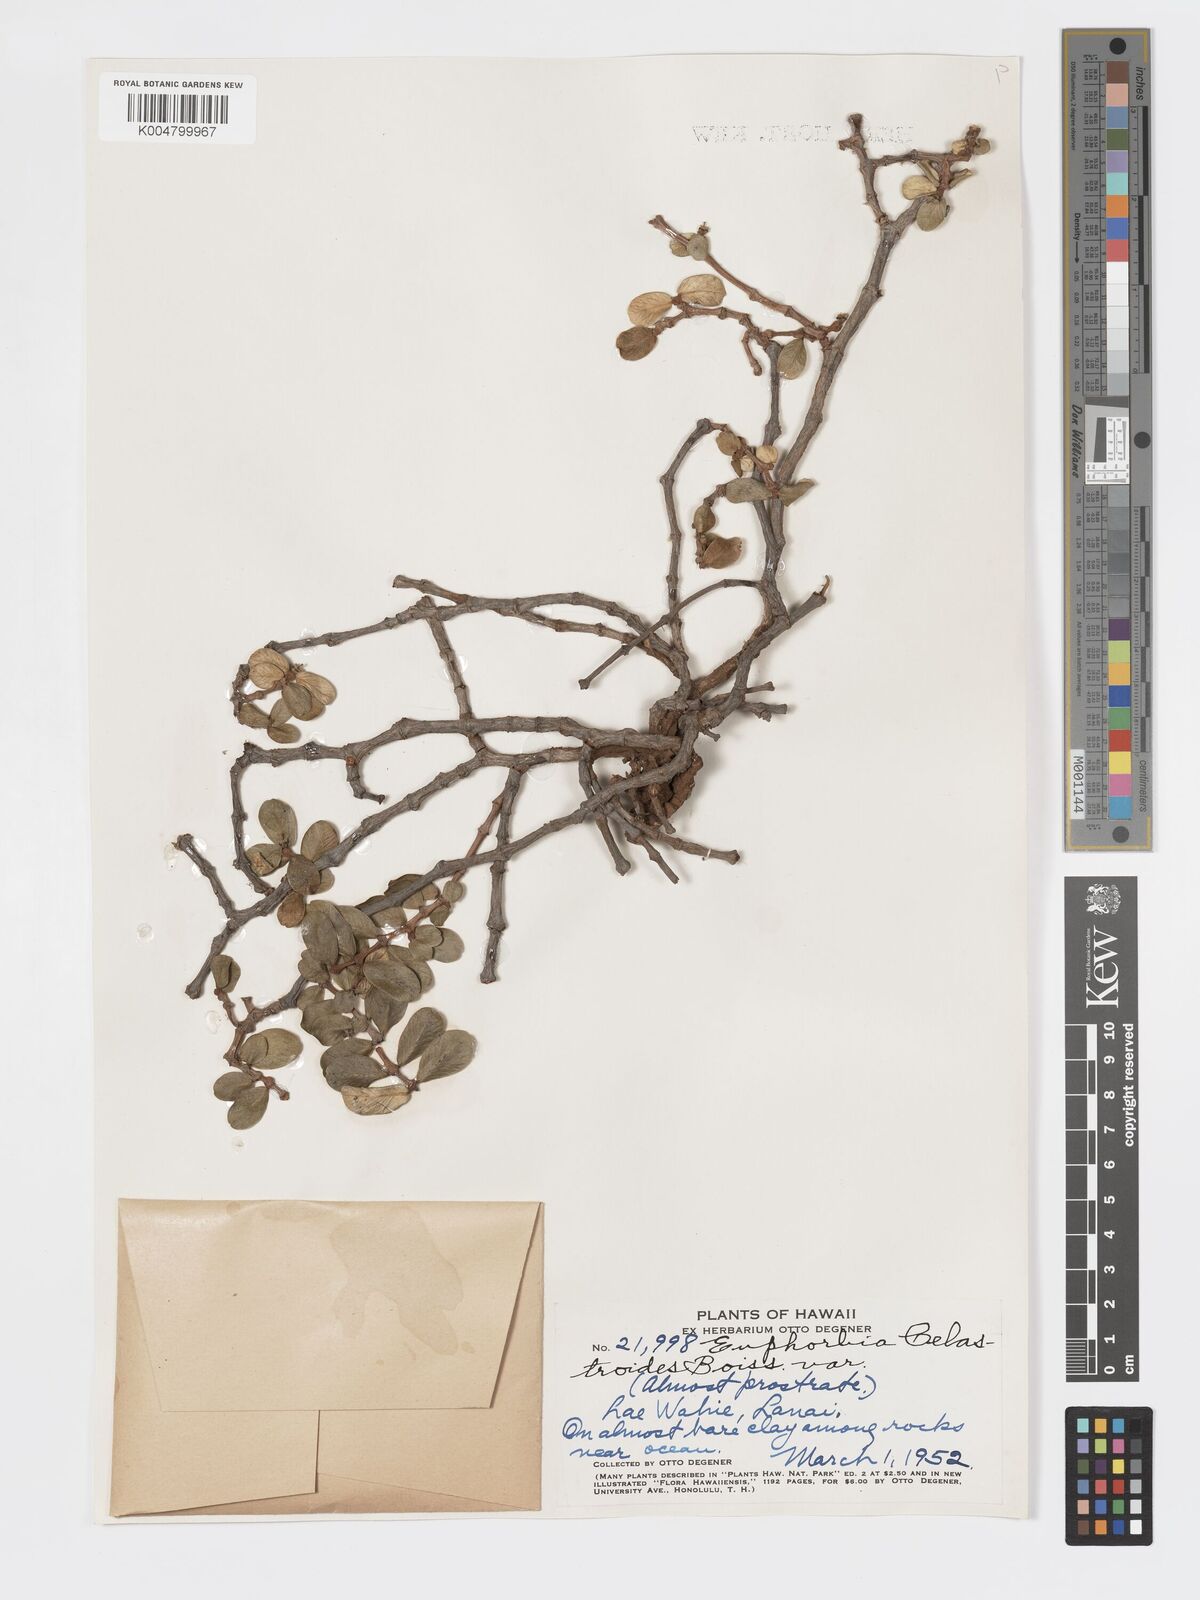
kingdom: Plantae
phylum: Tracheophyta
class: Magnoliopsida
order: Malpighiales
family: Euphorbiaceae
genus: Euphorbia
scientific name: Euphorbia celastroides
